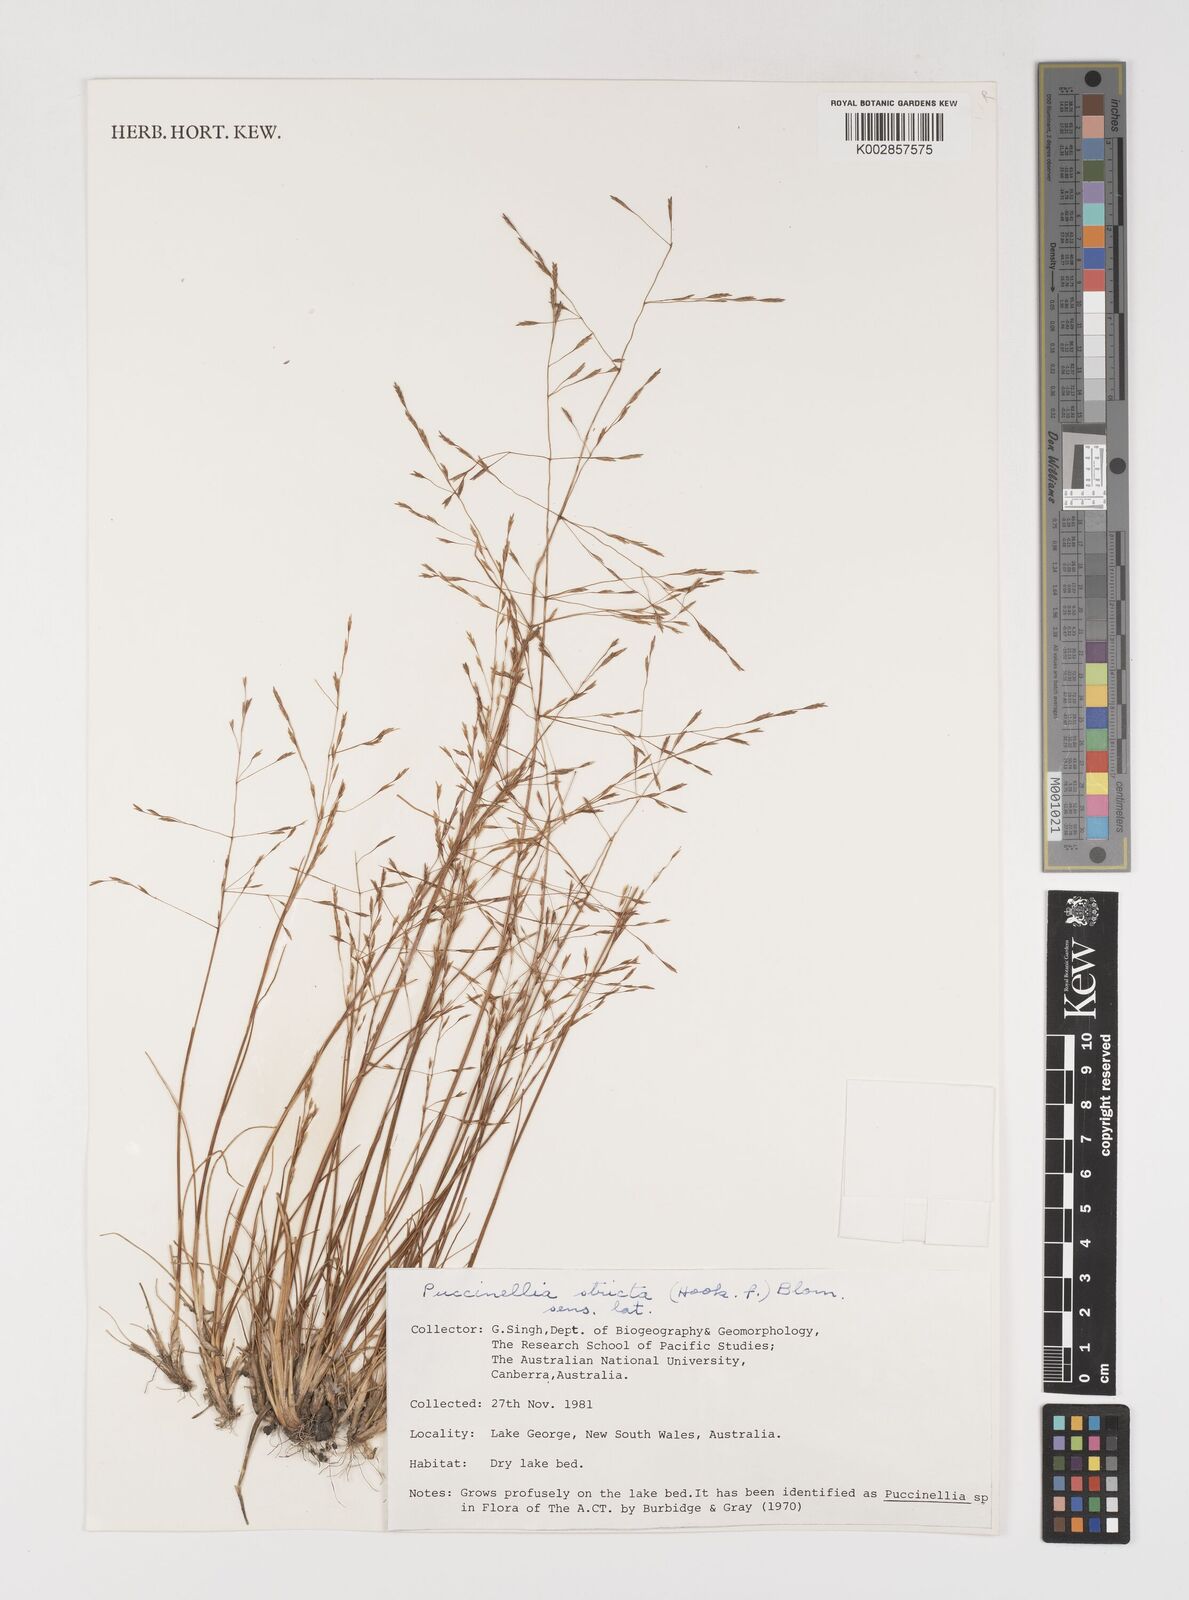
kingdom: Plantae
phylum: Tracheophyta
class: Liliopsida
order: Poales
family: Poaceae
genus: Puccinellia
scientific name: Puccinellia stricta
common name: Australian saltmarsh grass
